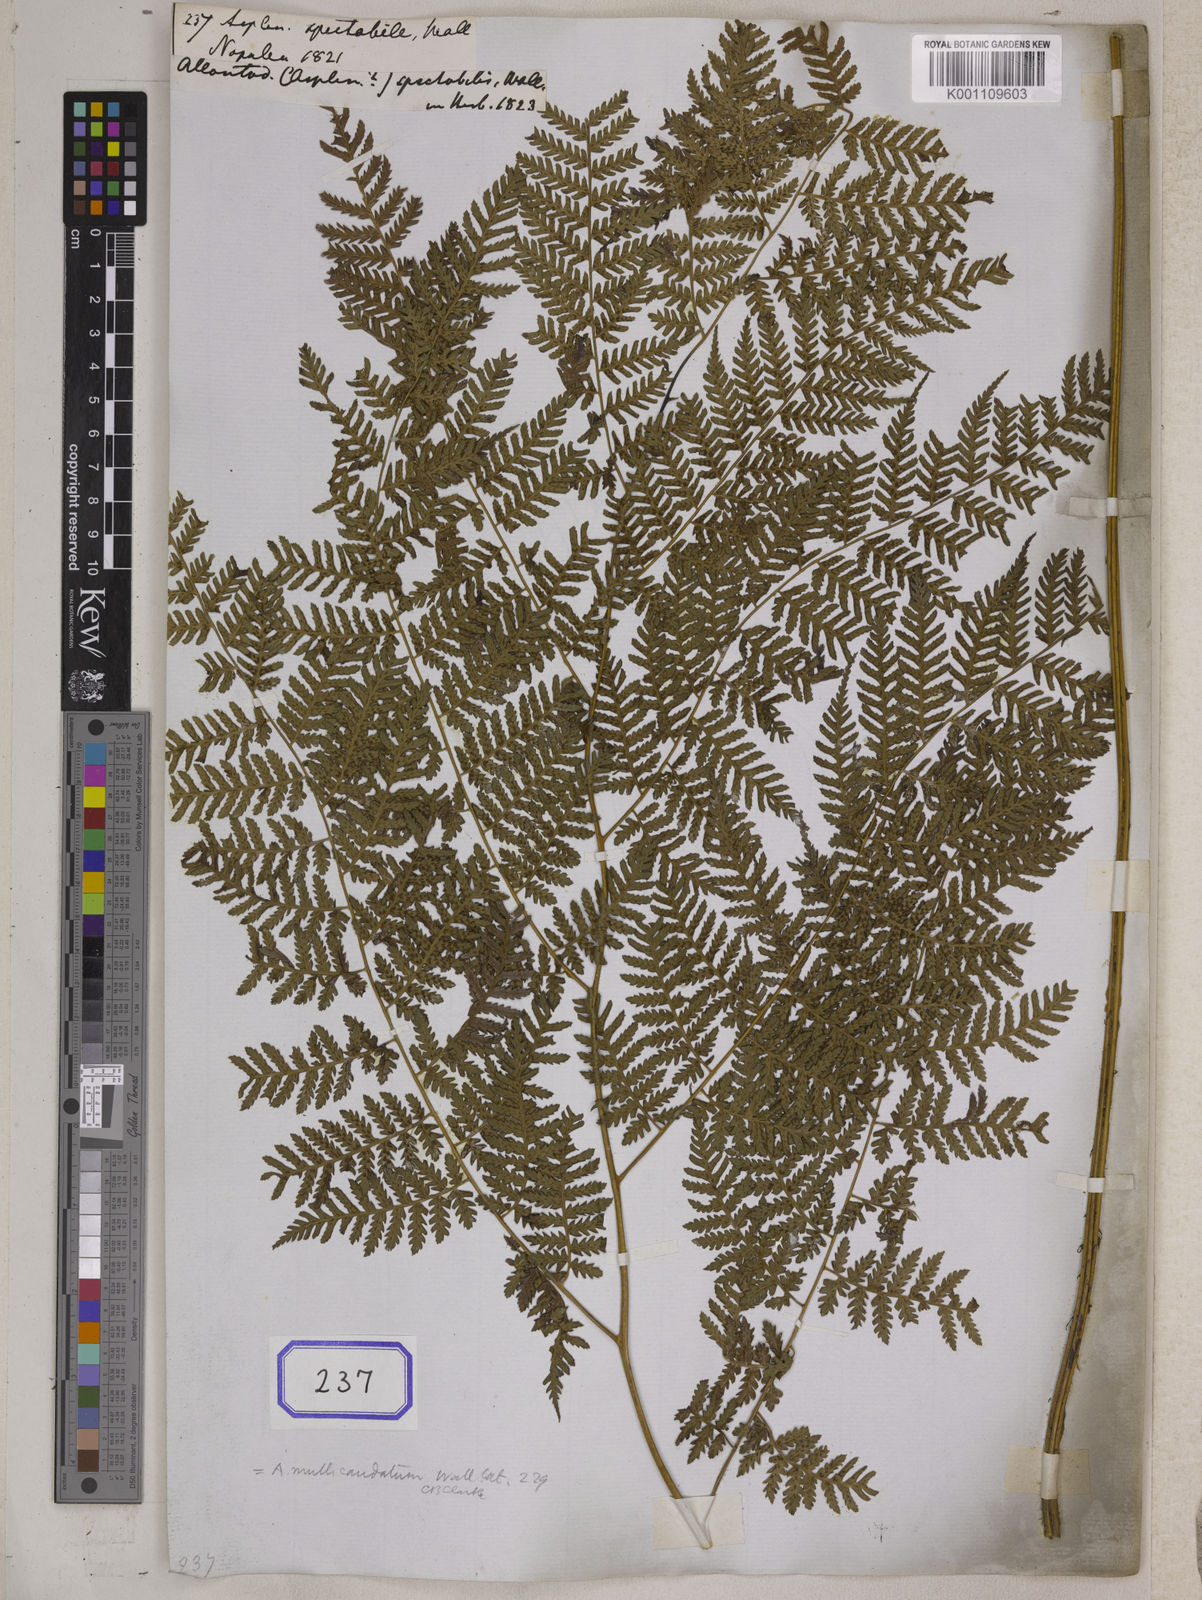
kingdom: Plantae
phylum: Tracheophyta
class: Polypodiopsida
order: Polypodiales
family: Athyriaceae
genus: Diplazium
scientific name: Diplazium spectabile
